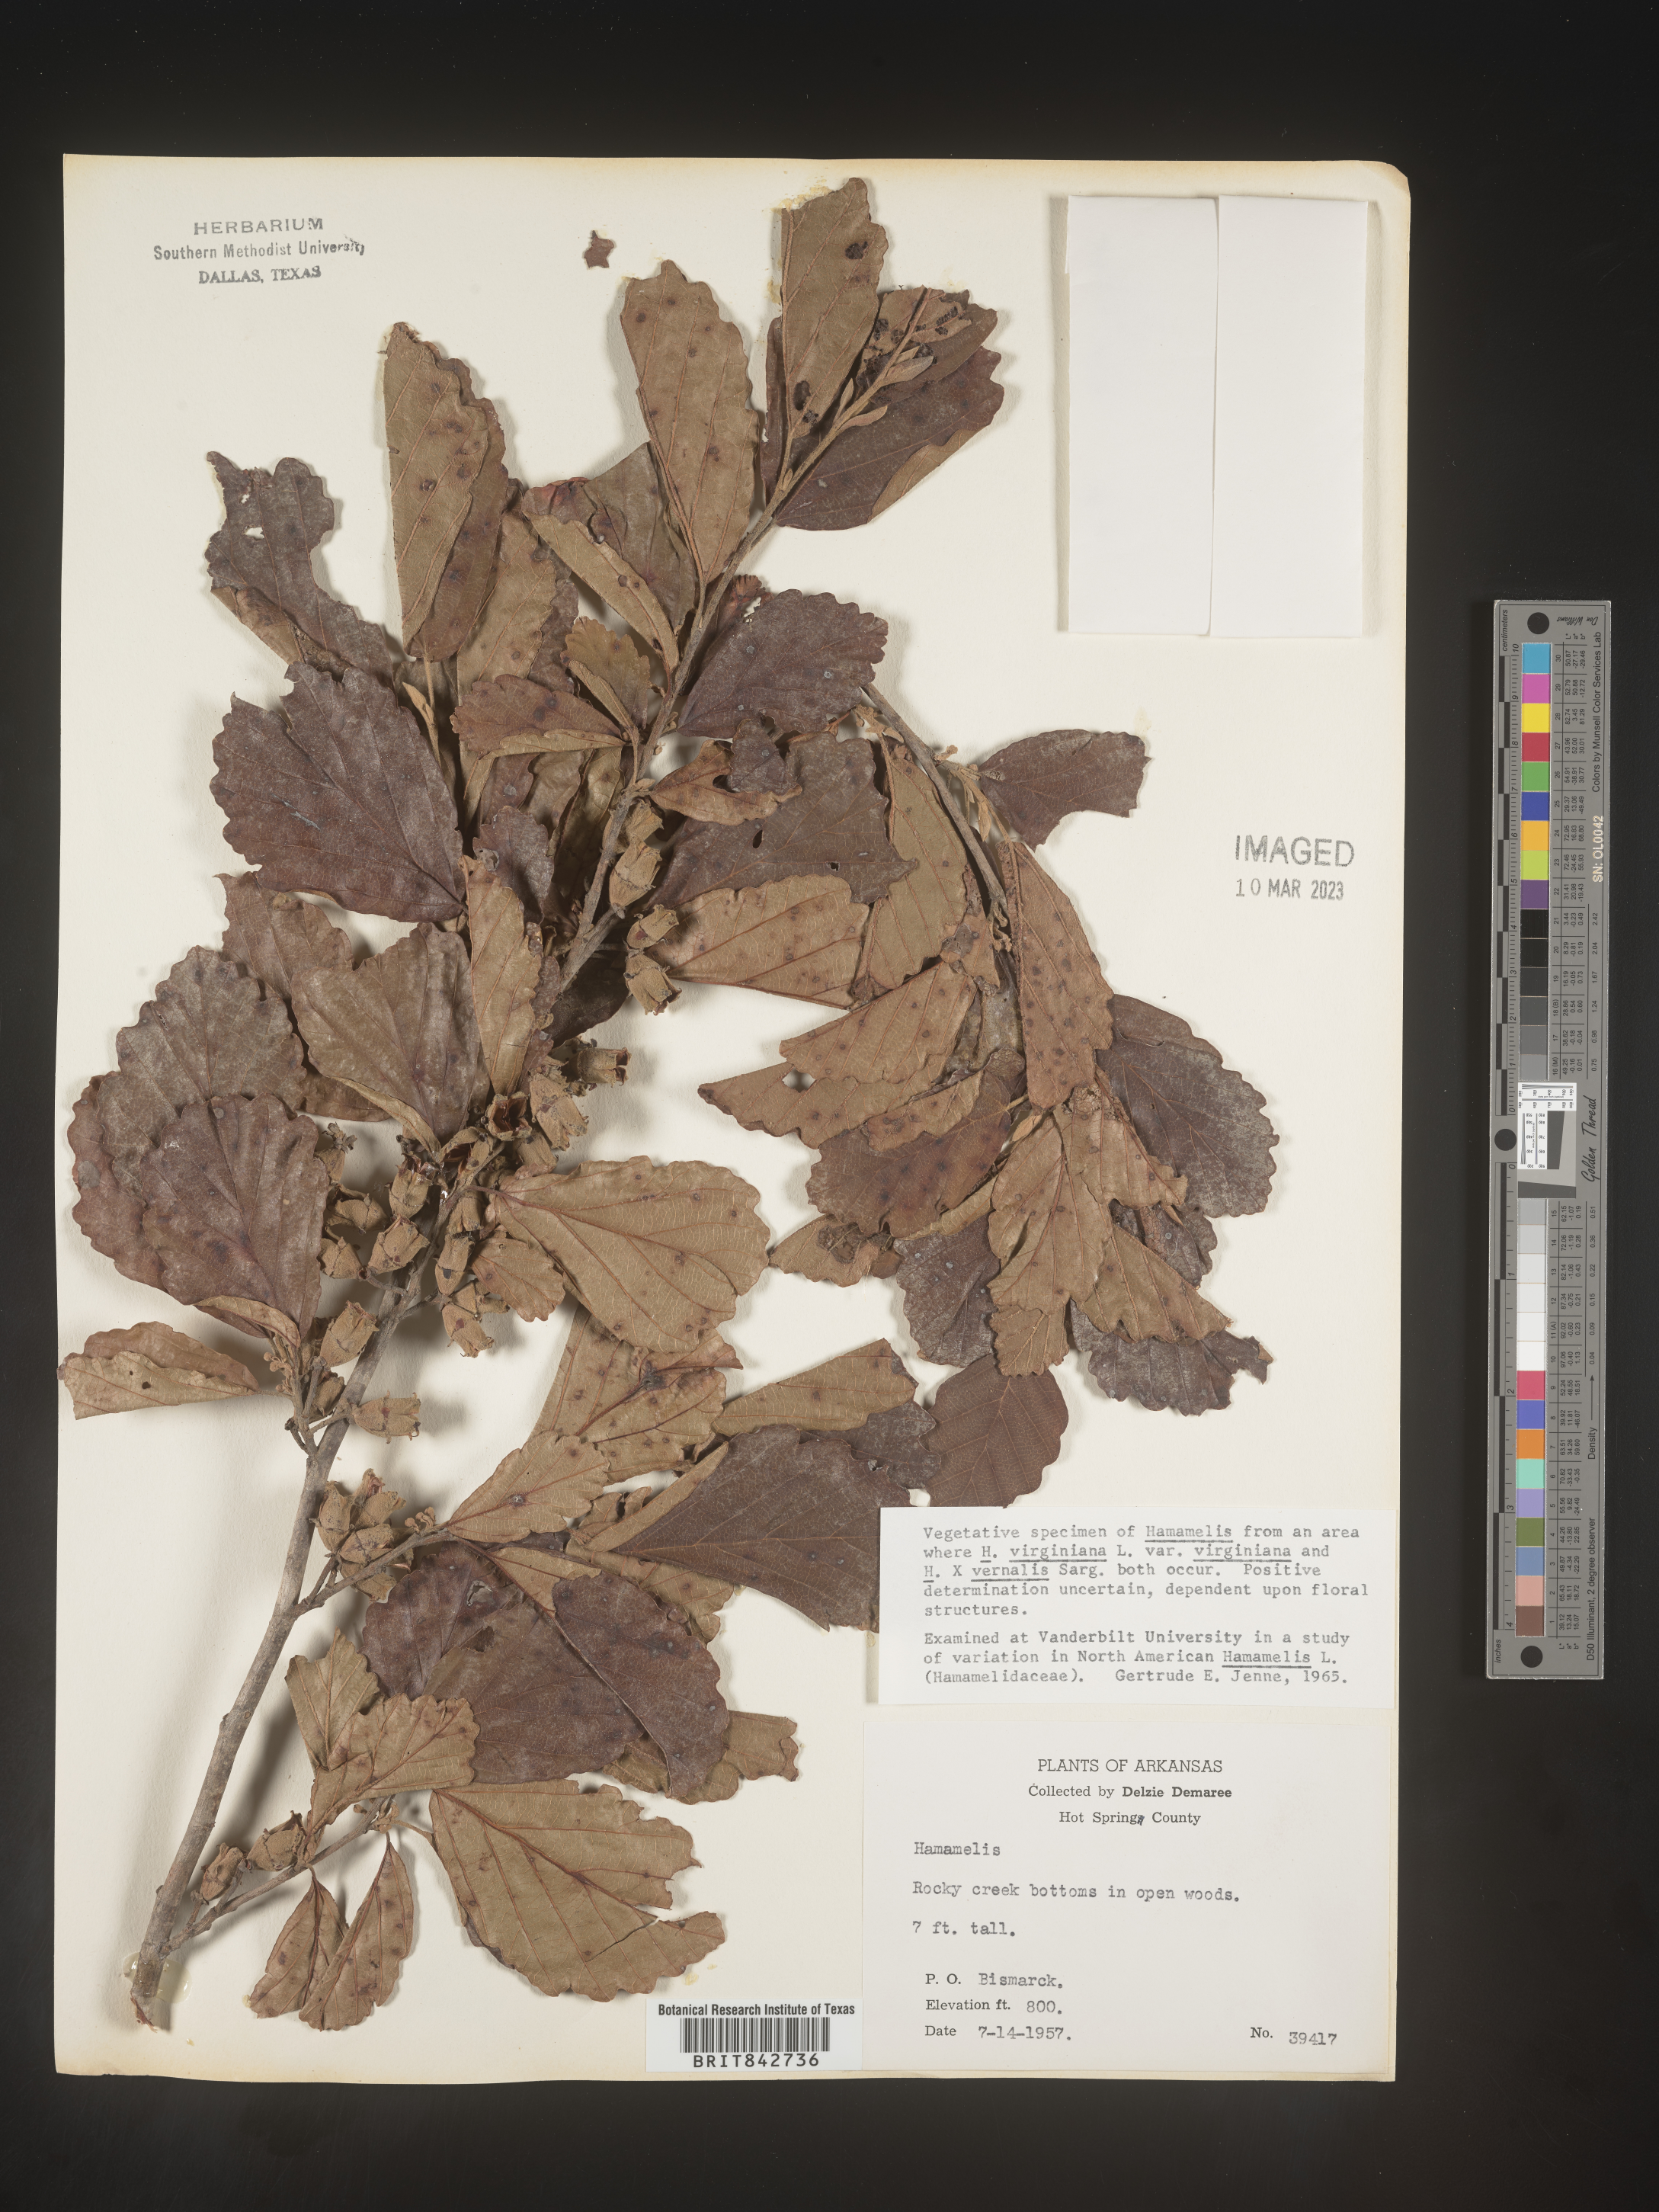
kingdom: Plantae
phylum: Tracheophyta
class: Magnoliopsida
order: Saxifragales
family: Hamamelidaceae
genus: Hamamelis
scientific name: Hamamelis virginiana
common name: Witch-hazel
